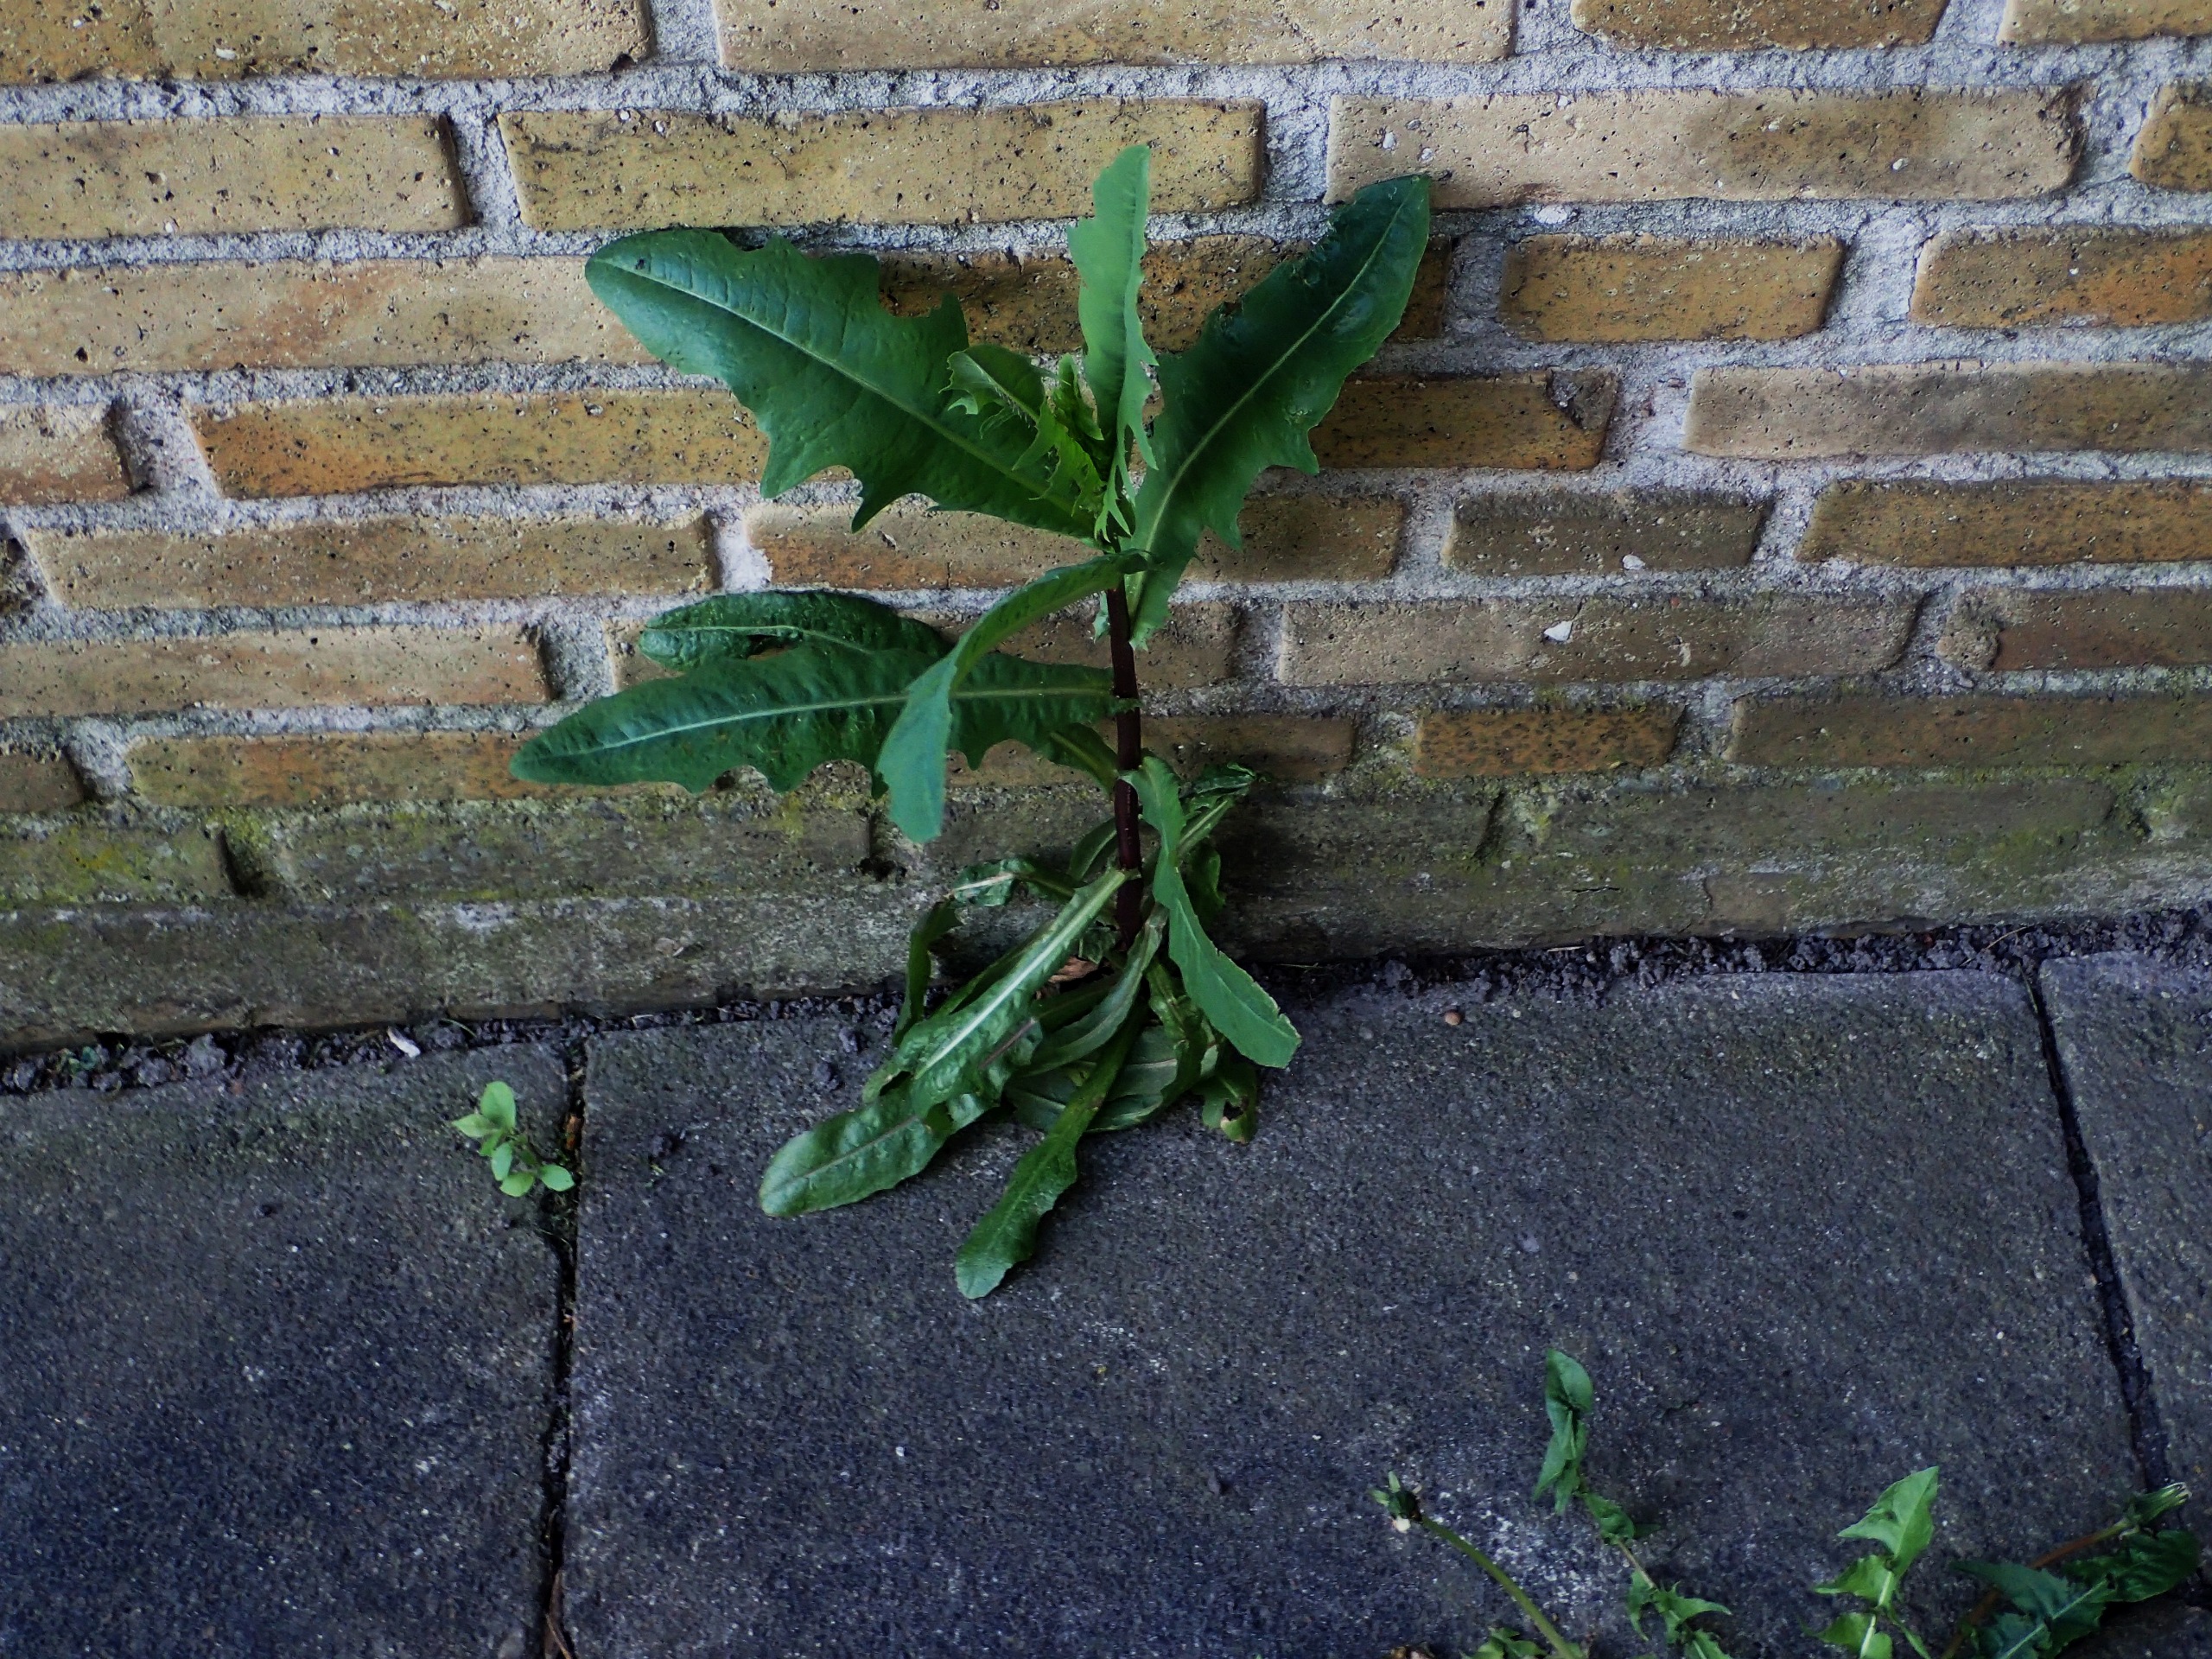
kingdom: Plantae
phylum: Tracheophyta
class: Magnoliopsida
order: Asterales
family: Asteraceae
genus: Lactuca
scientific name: Lactuca serriola
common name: Tornet salat
